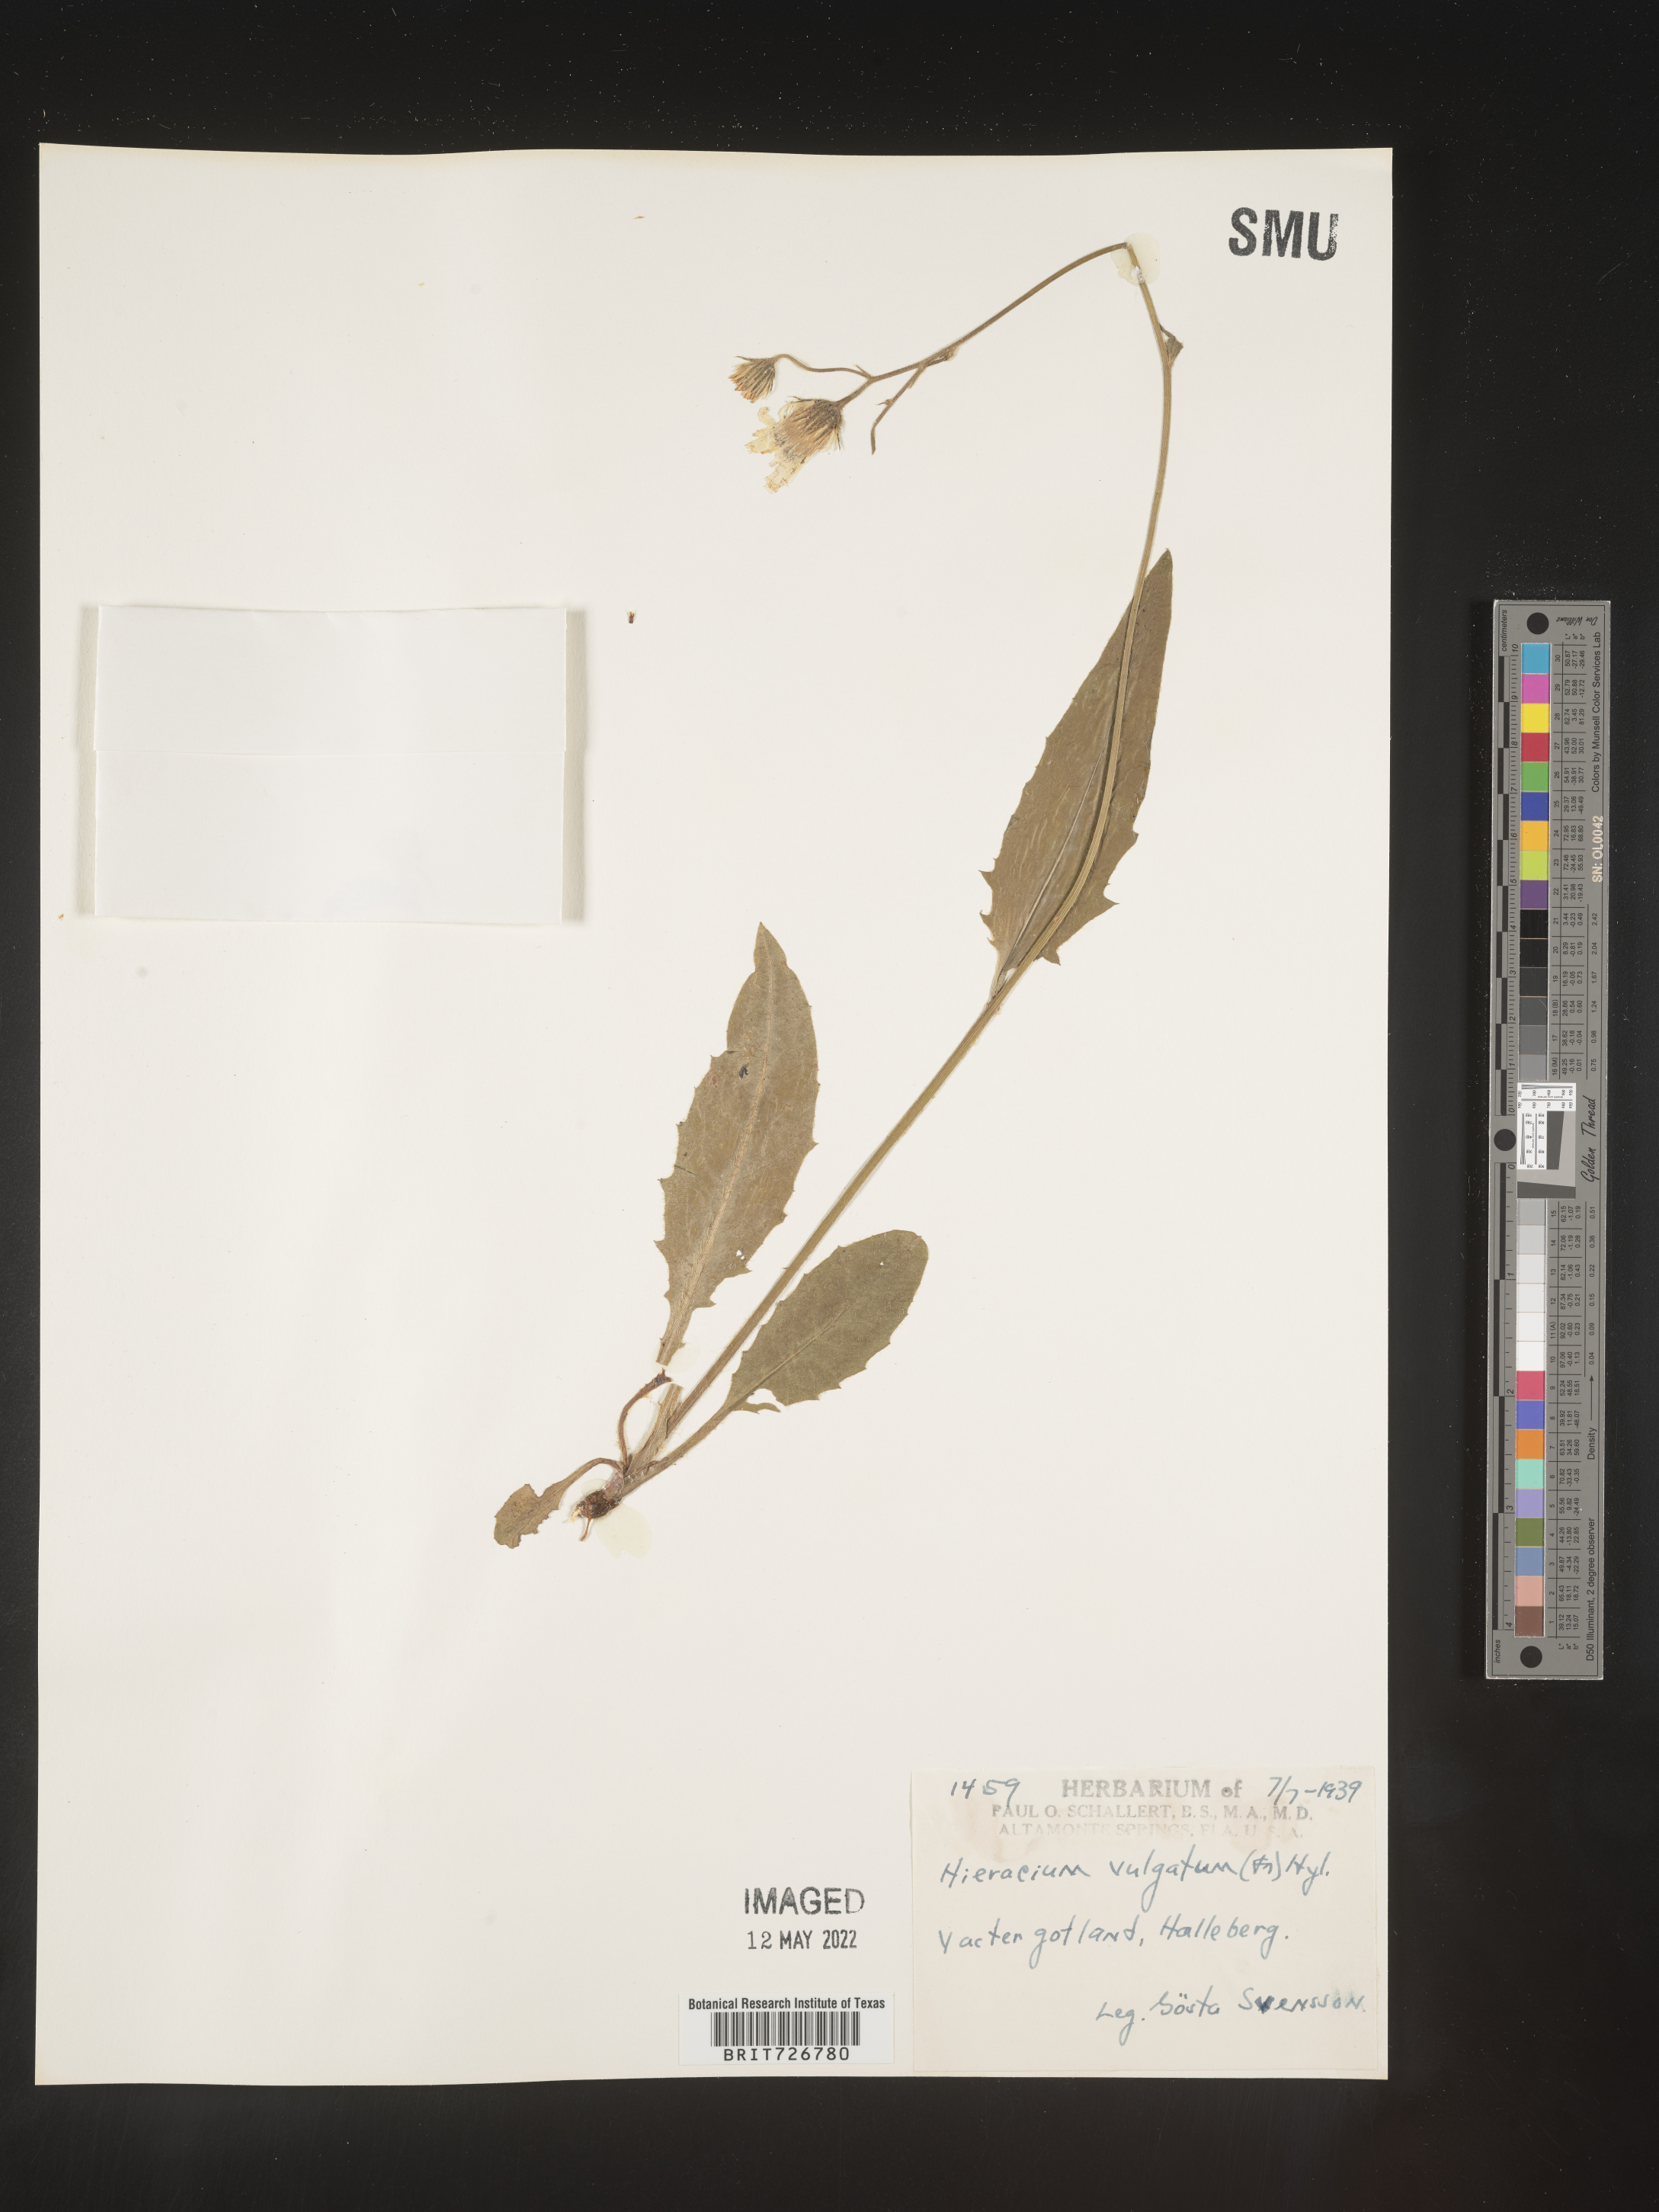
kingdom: Plantae
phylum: Tracheophyta
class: Magnoliopsida
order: Asterales
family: Asteraceae
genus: Hieracium
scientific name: Hieracium
